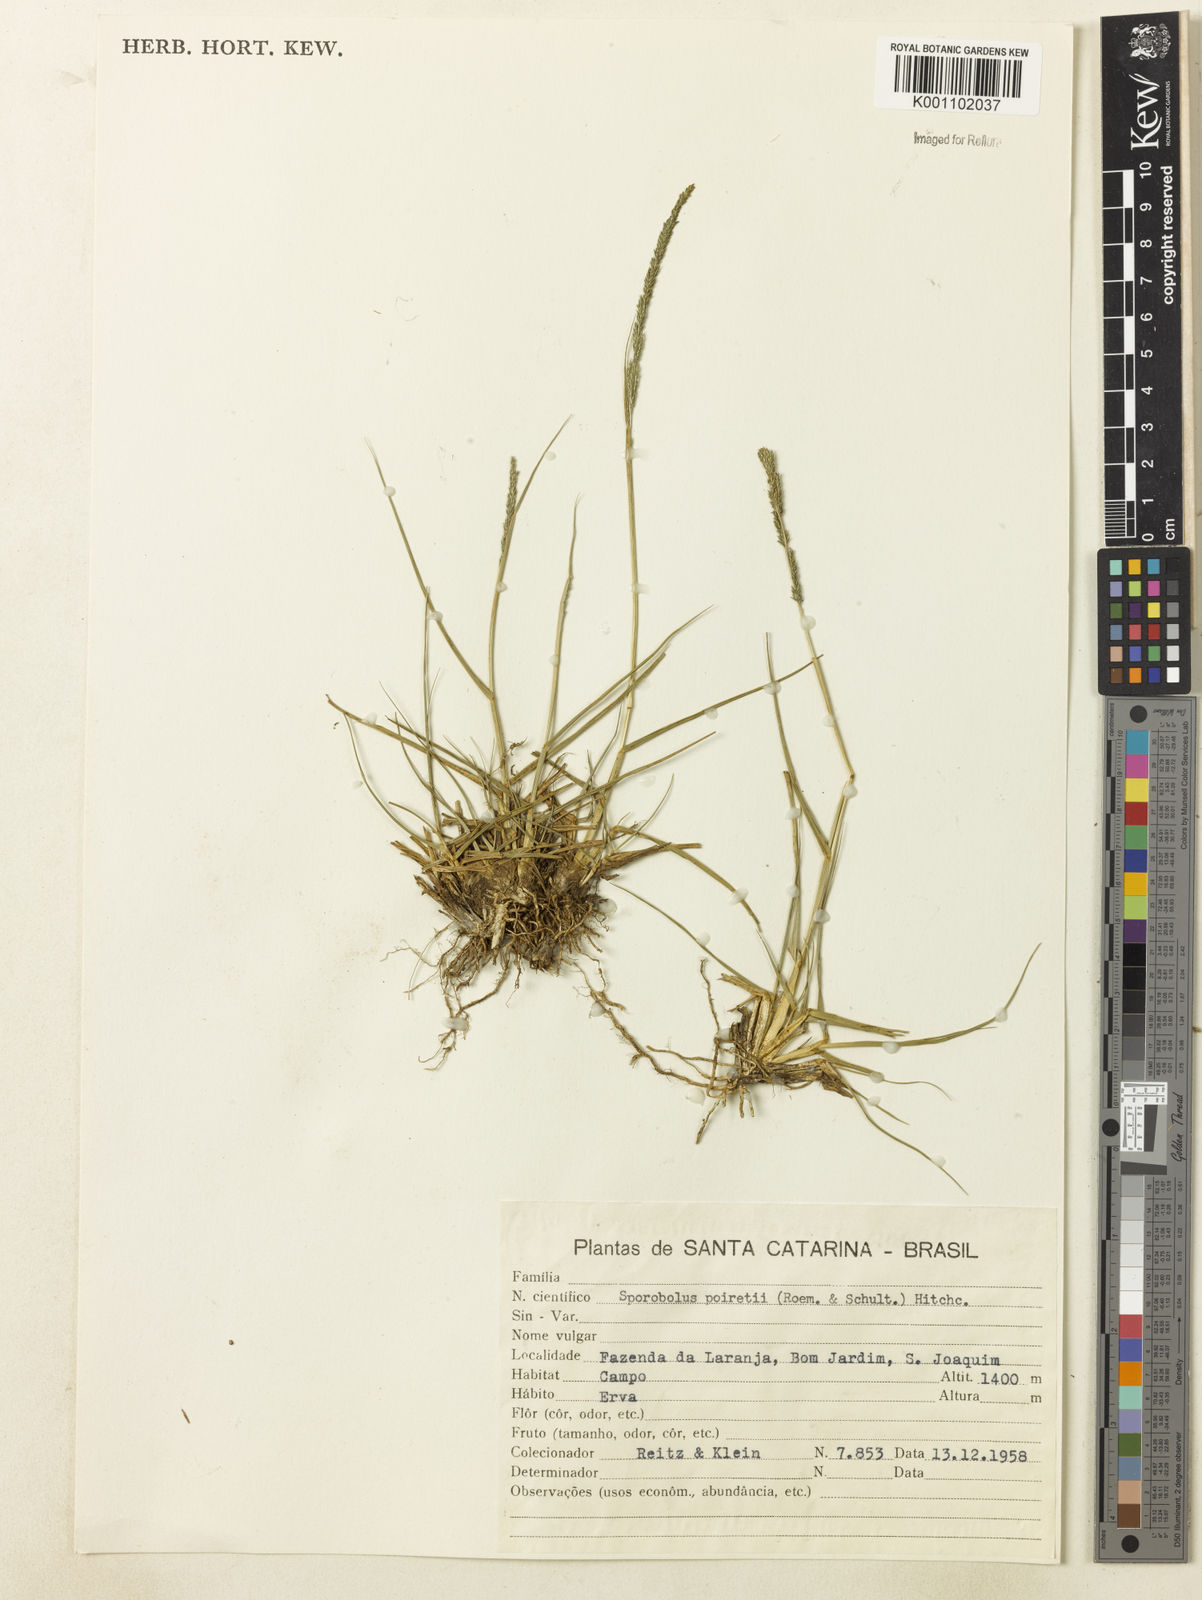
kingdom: Plantae
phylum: Tracheophyta
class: Liliopsida
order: Poales
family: Poaceae
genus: Sporobolus
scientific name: Sporobolus indicus
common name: Smut grass
